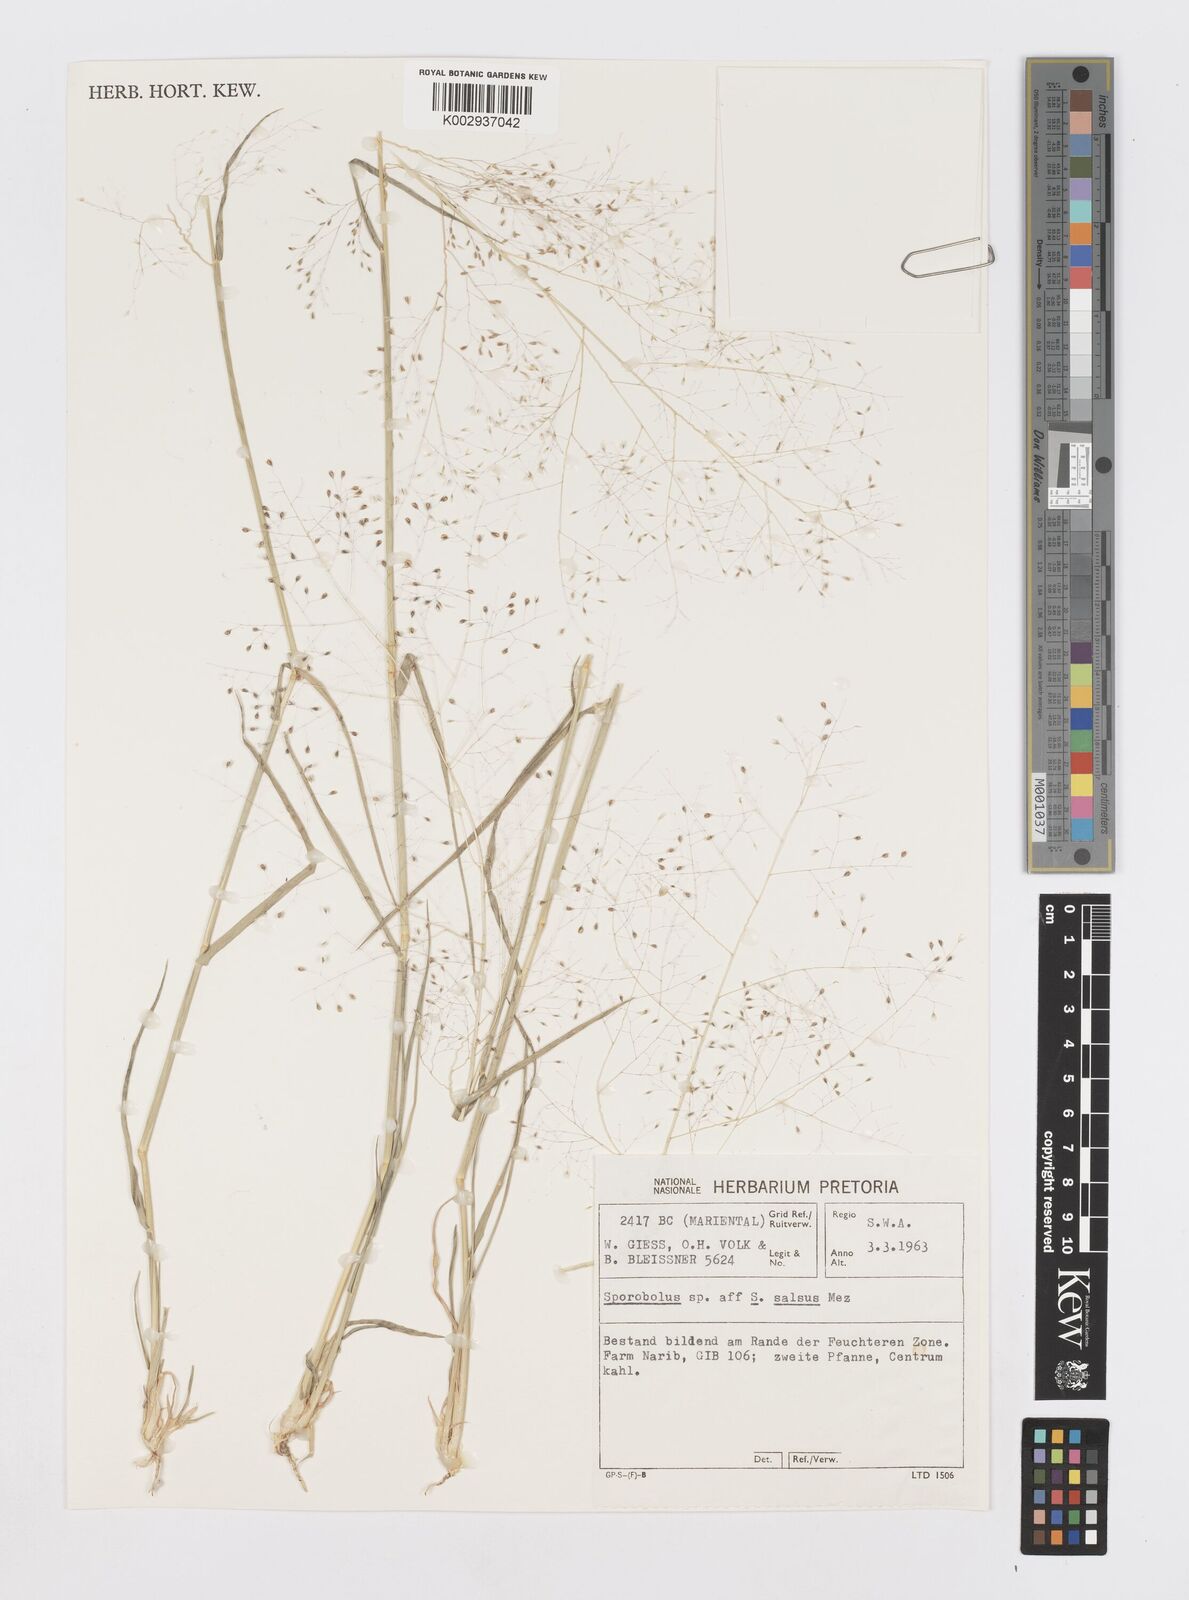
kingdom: Plantae
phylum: Tracheophyta
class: Liliopsida
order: Poales
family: Poaceae
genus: Sporobolus
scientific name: Sporobolus
